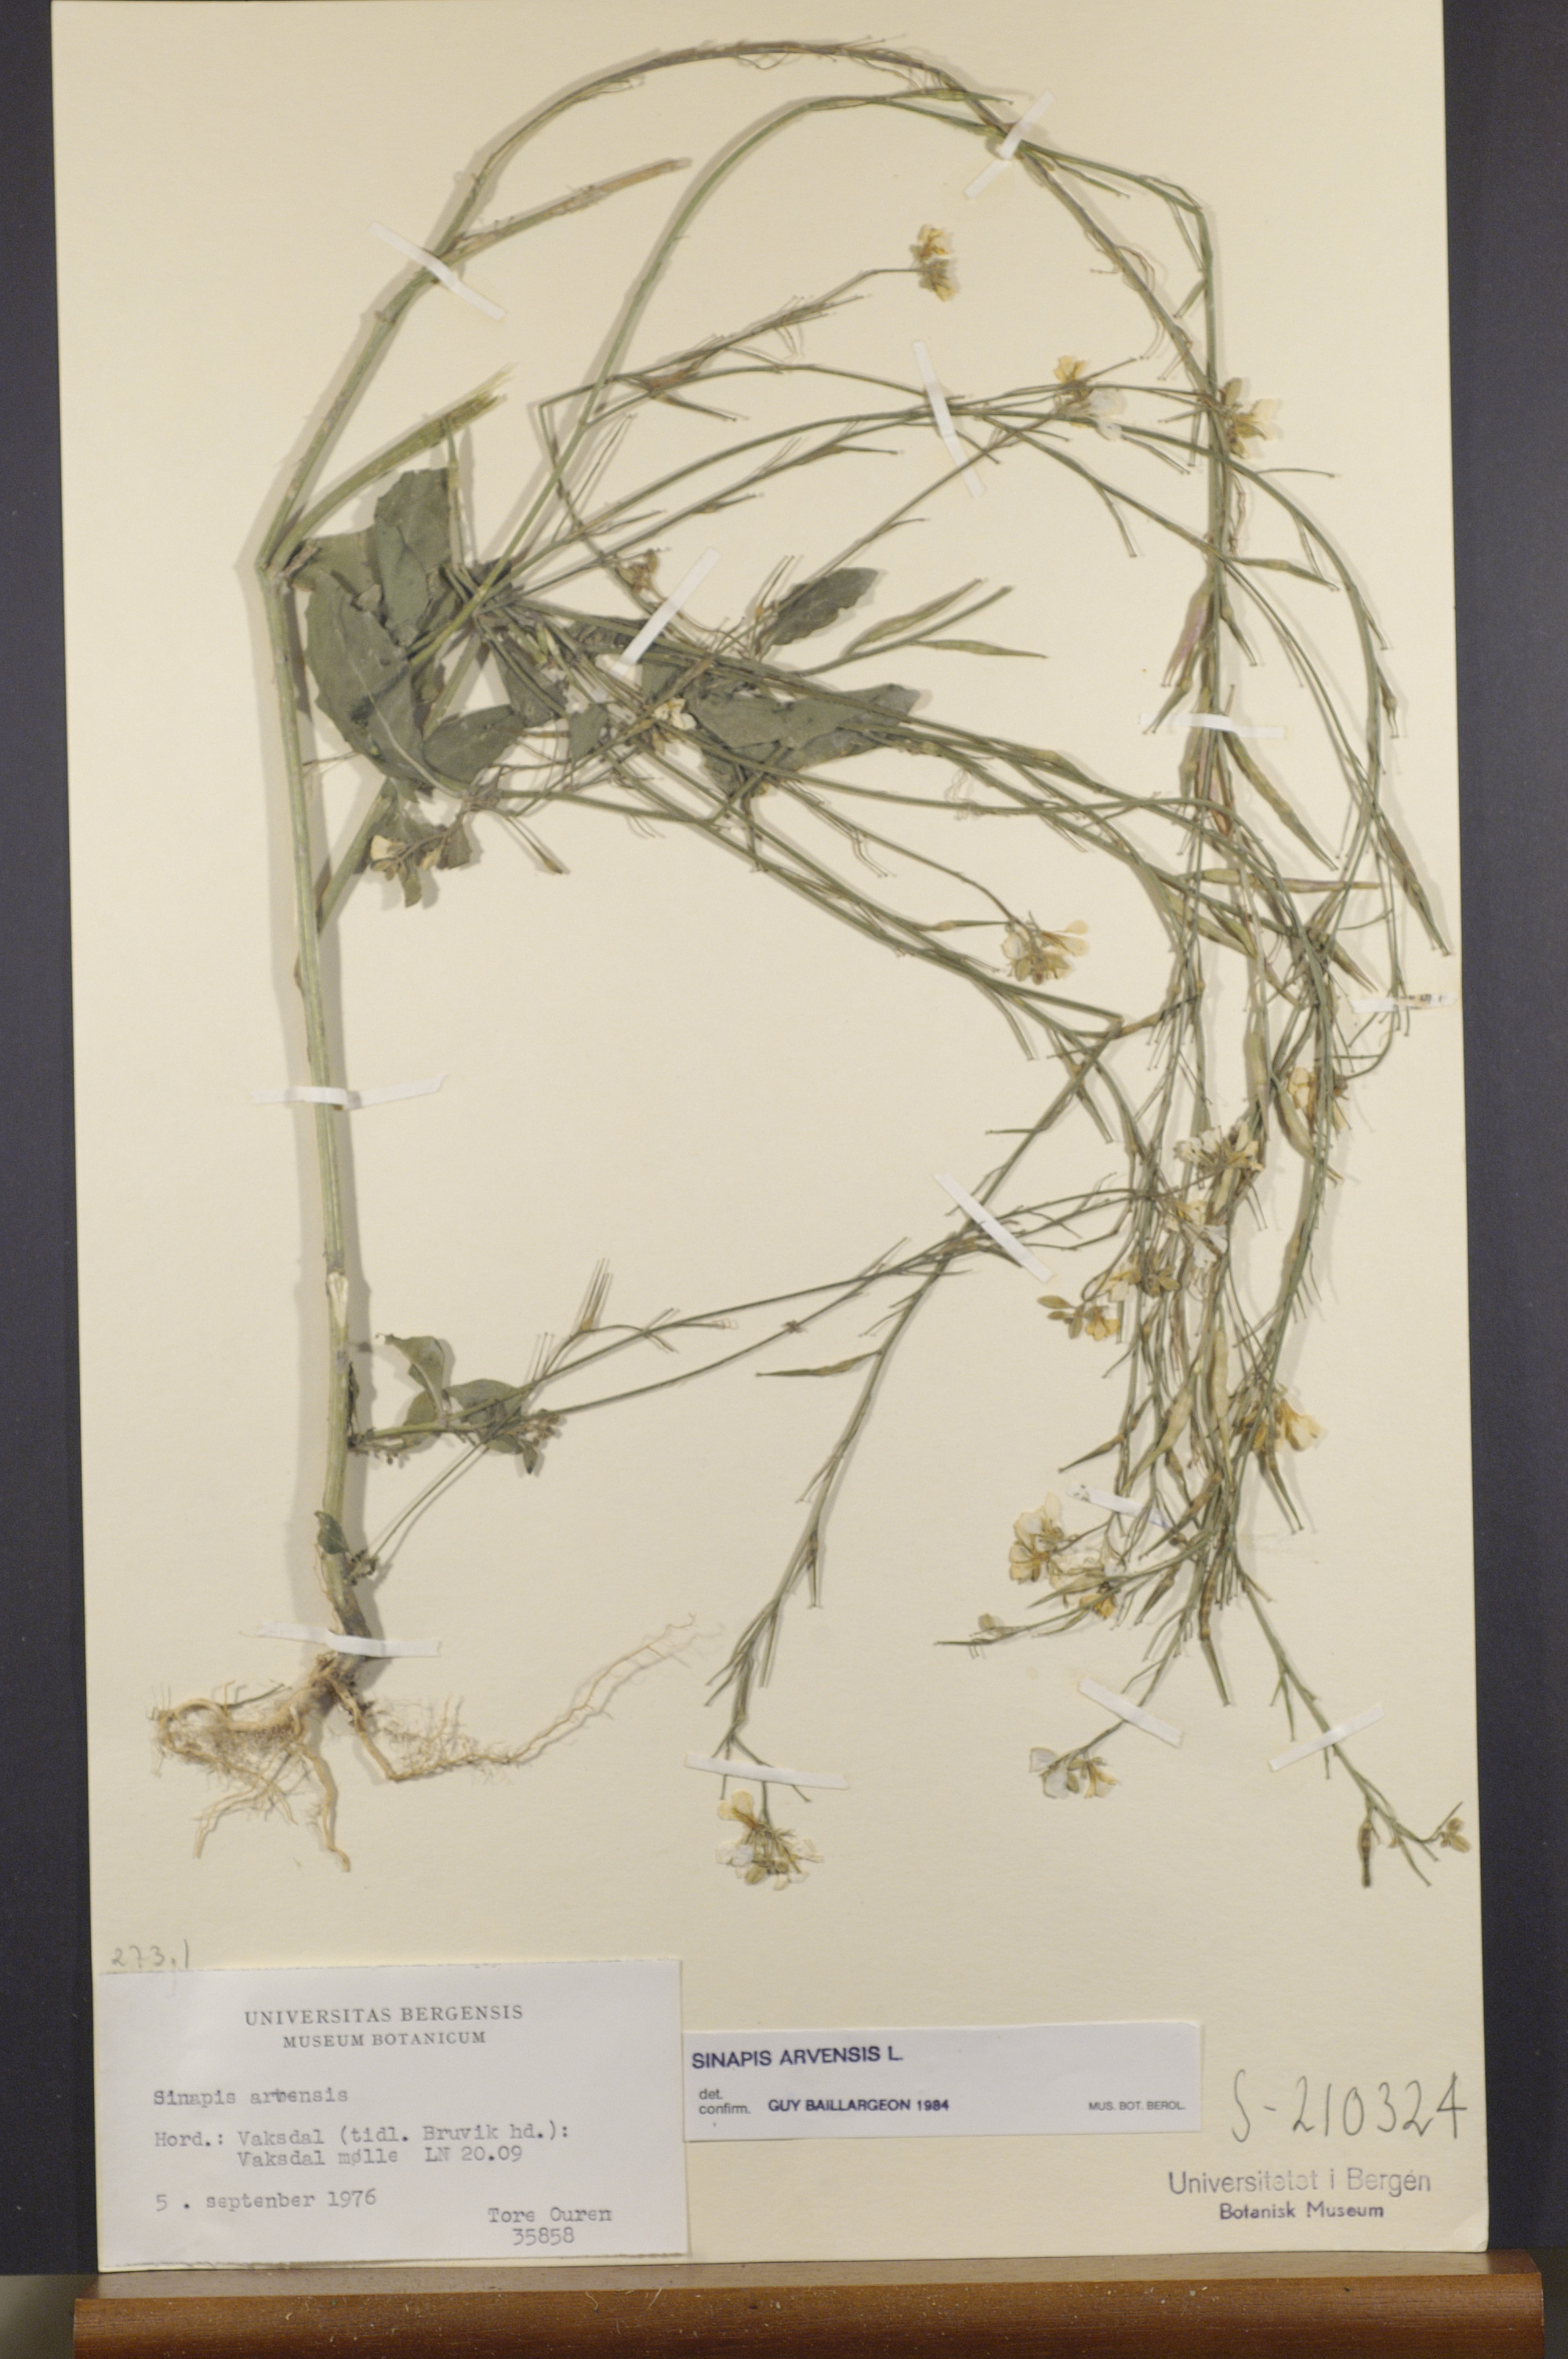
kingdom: Plantae
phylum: Tracheophyta
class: Magnoliopsida
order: Brassicales
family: Brassicaceae
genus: Sinapis
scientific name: Sinapis arvensis
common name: Charlock
